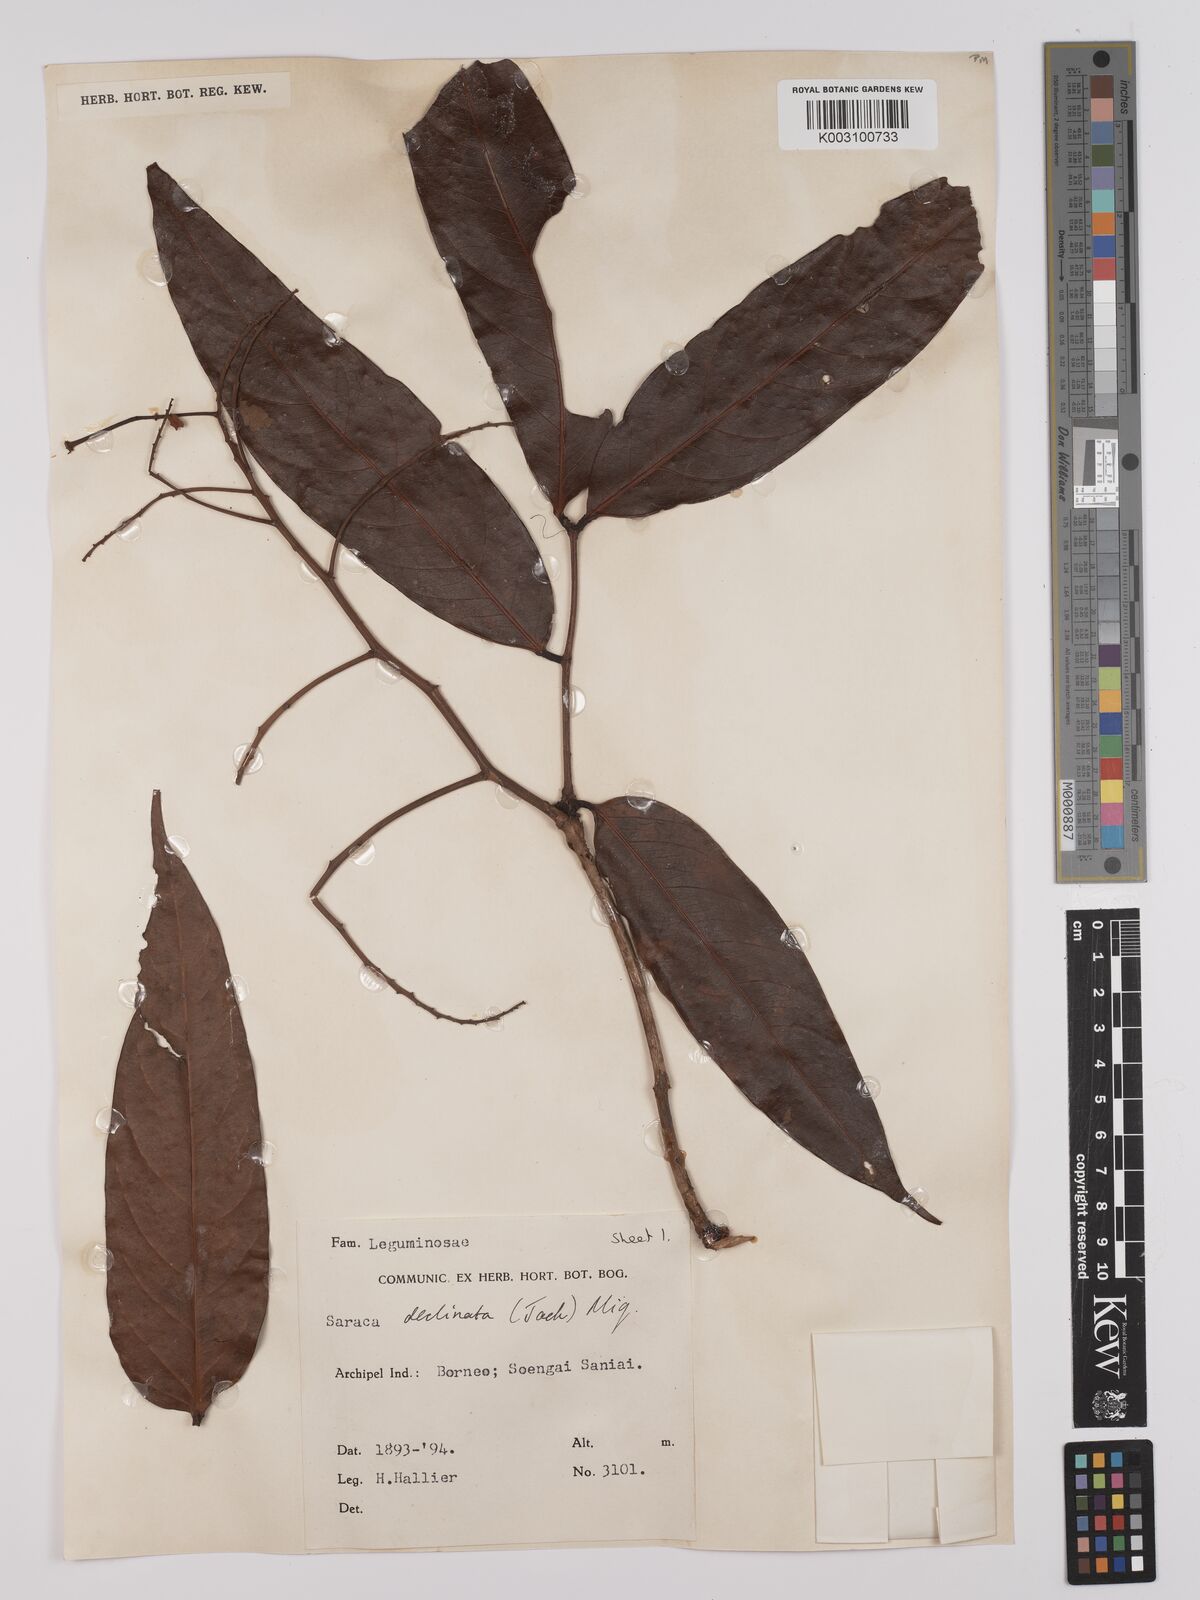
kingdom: Plantae
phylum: Tracheophyta
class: Magnoliopsida
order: Fabales
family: Fabaceae
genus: Saraca
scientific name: Saraca declinata
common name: Red saraca
